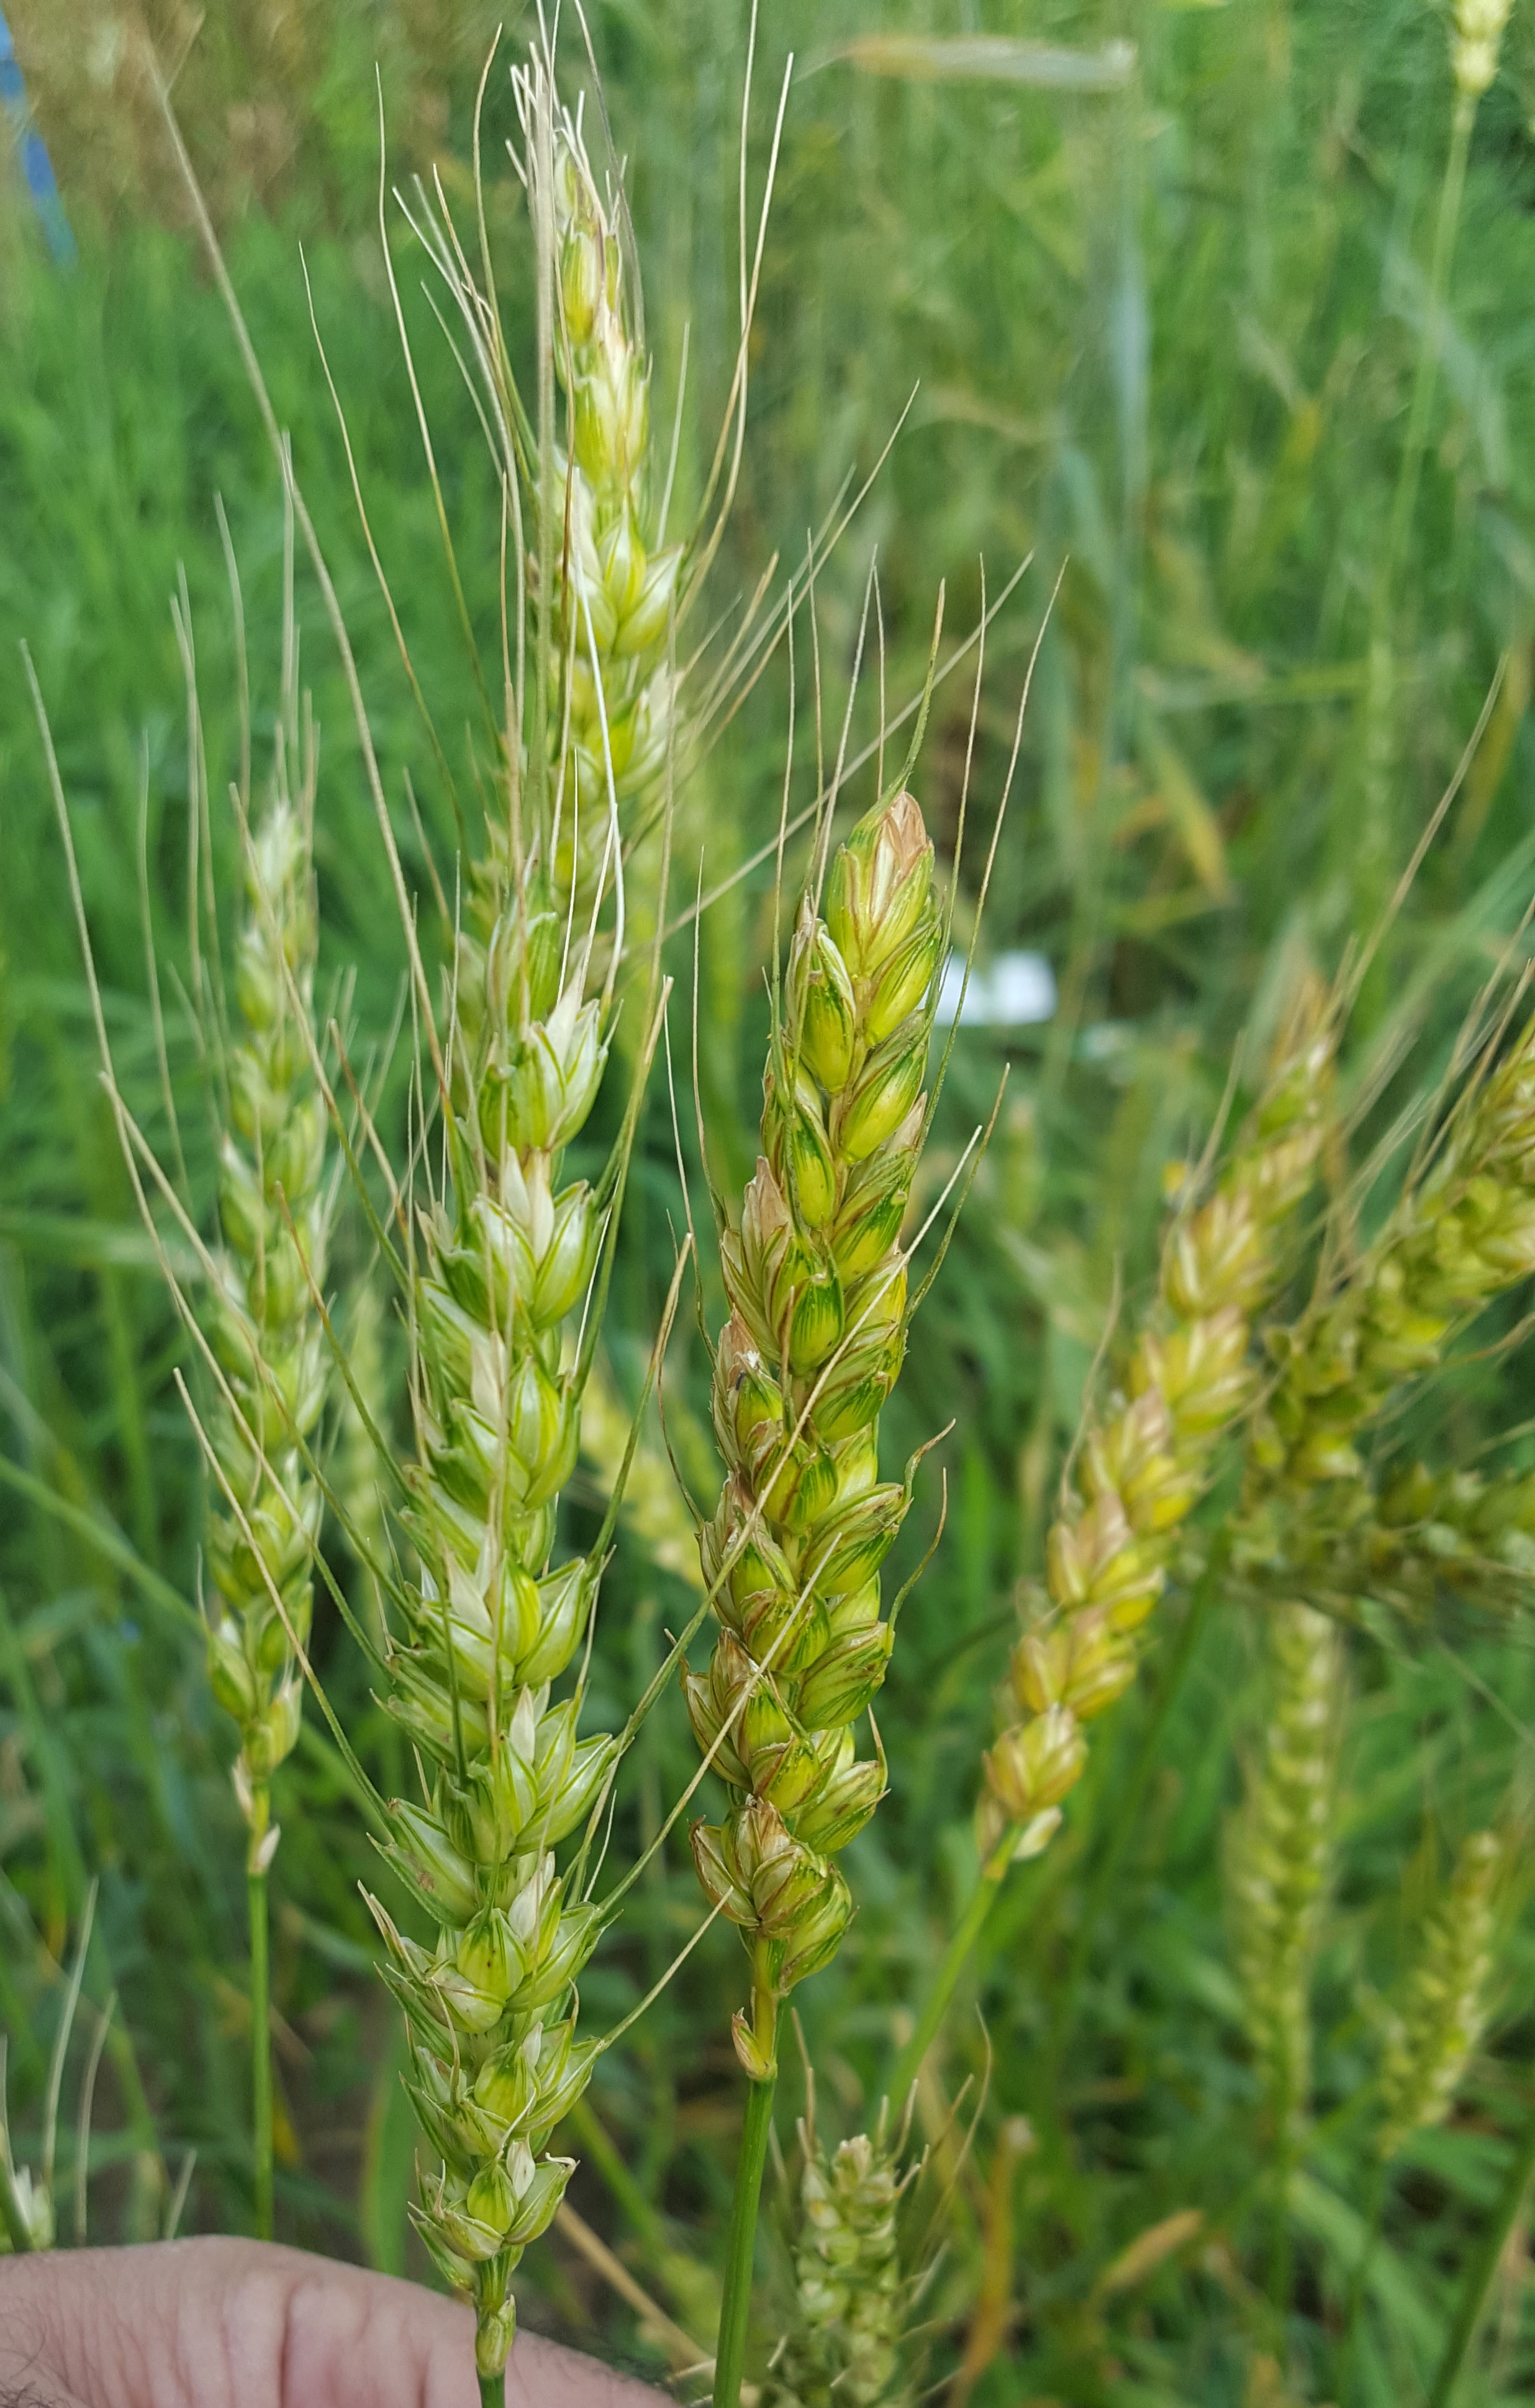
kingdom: Plantae
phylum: Tracheophyta
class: Liliopsida
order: Poales
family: Poaceae
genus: Triticum
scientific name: Triticum aestivum
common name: Common wheat
